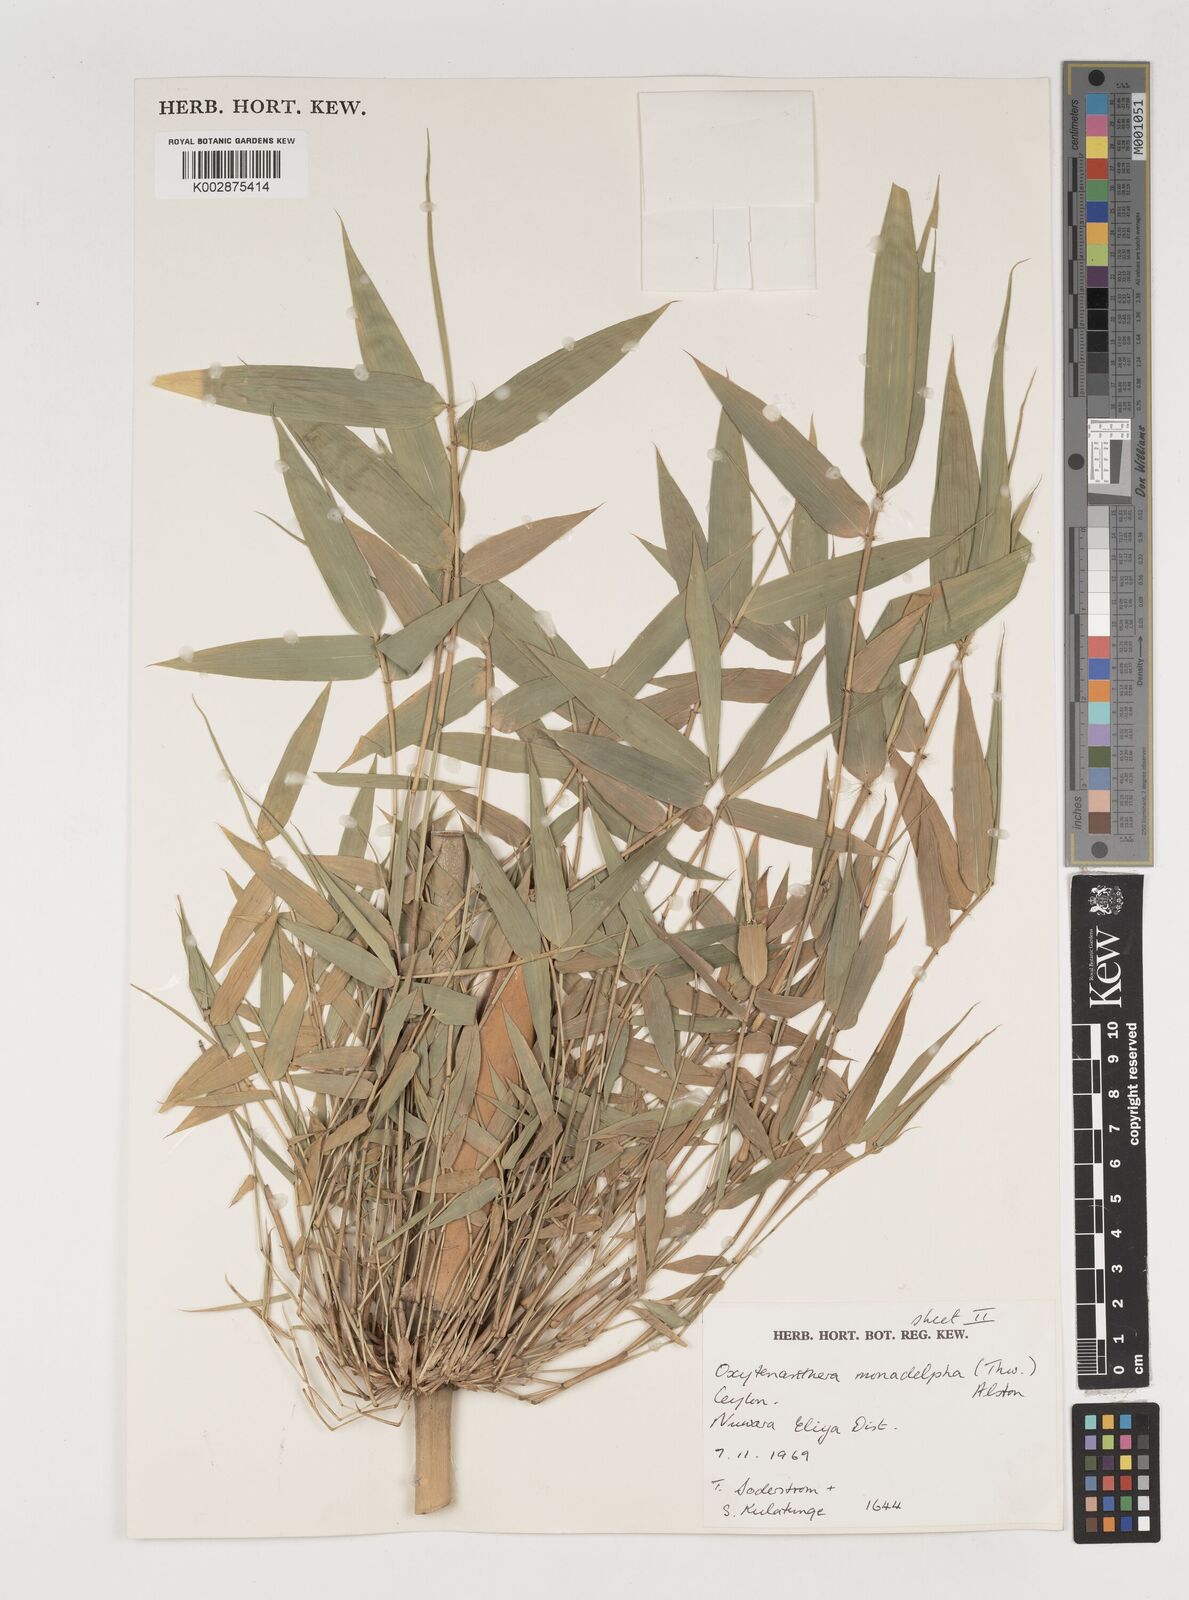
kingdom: Plantae
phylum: Tracheophyta
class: Liliopsida
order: Poales
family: Poaceae
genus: Dendrocalamus
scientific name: Dendrocalamus
